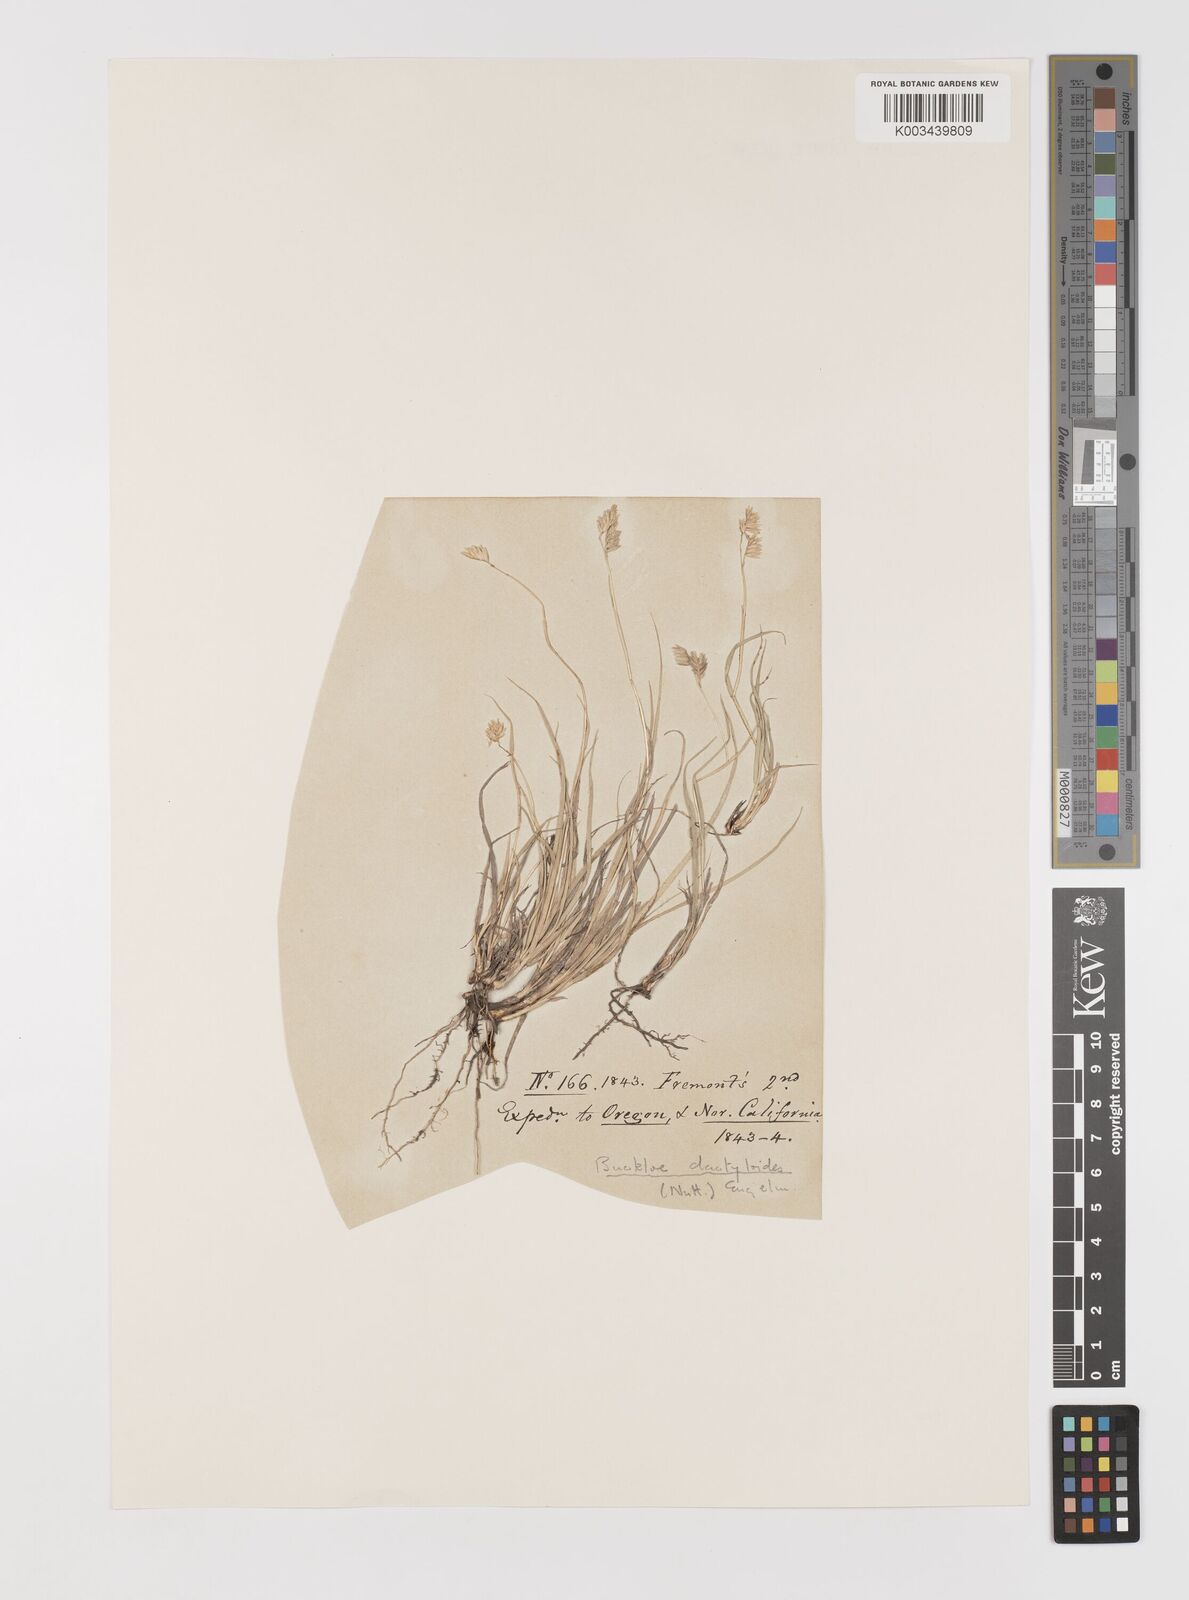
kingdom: Plantae
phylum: Tracheophyta
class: Liliopsida
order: Poales
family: Poaceae
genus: Bouteloua
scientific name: Bouteloua dactyloides
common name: Buffalo grass
